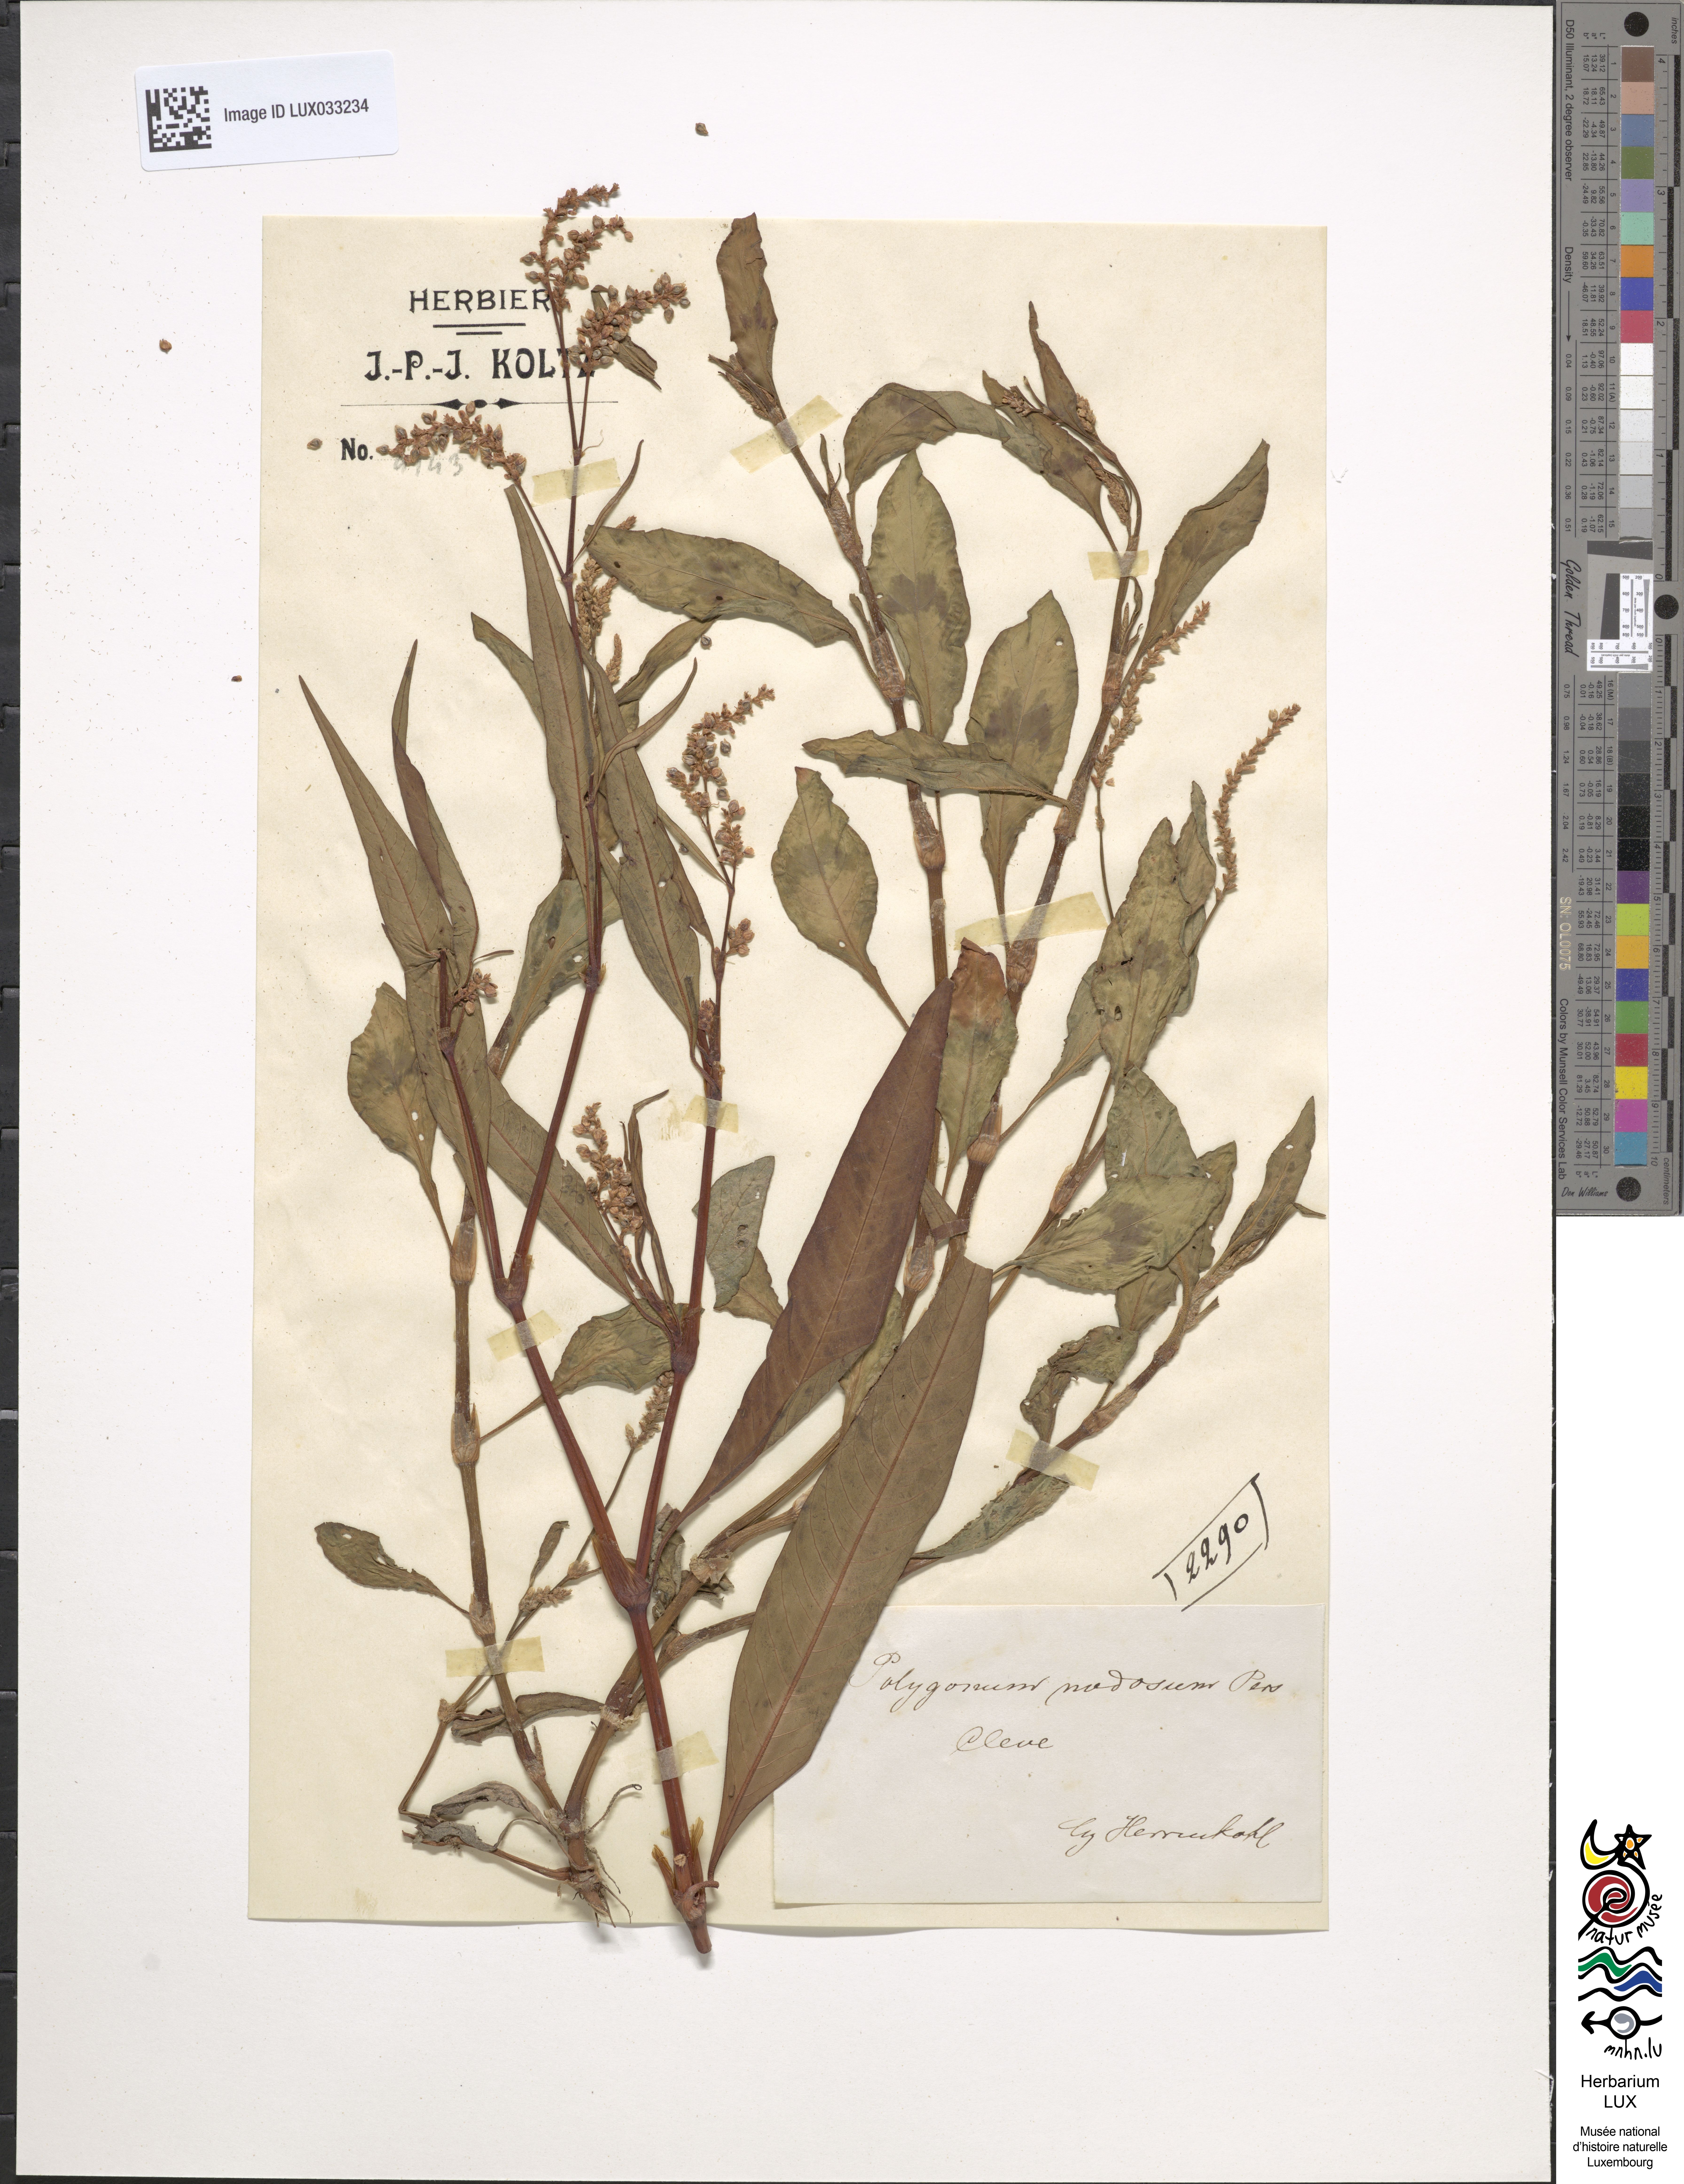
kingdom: Plantae
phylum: Tracheophyta
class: Magnoliopsida
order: Caryophyllales
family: Polygonaceae
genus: Persicaria
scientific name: Persicaria lapathifolia
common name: Curlytop knotweed
